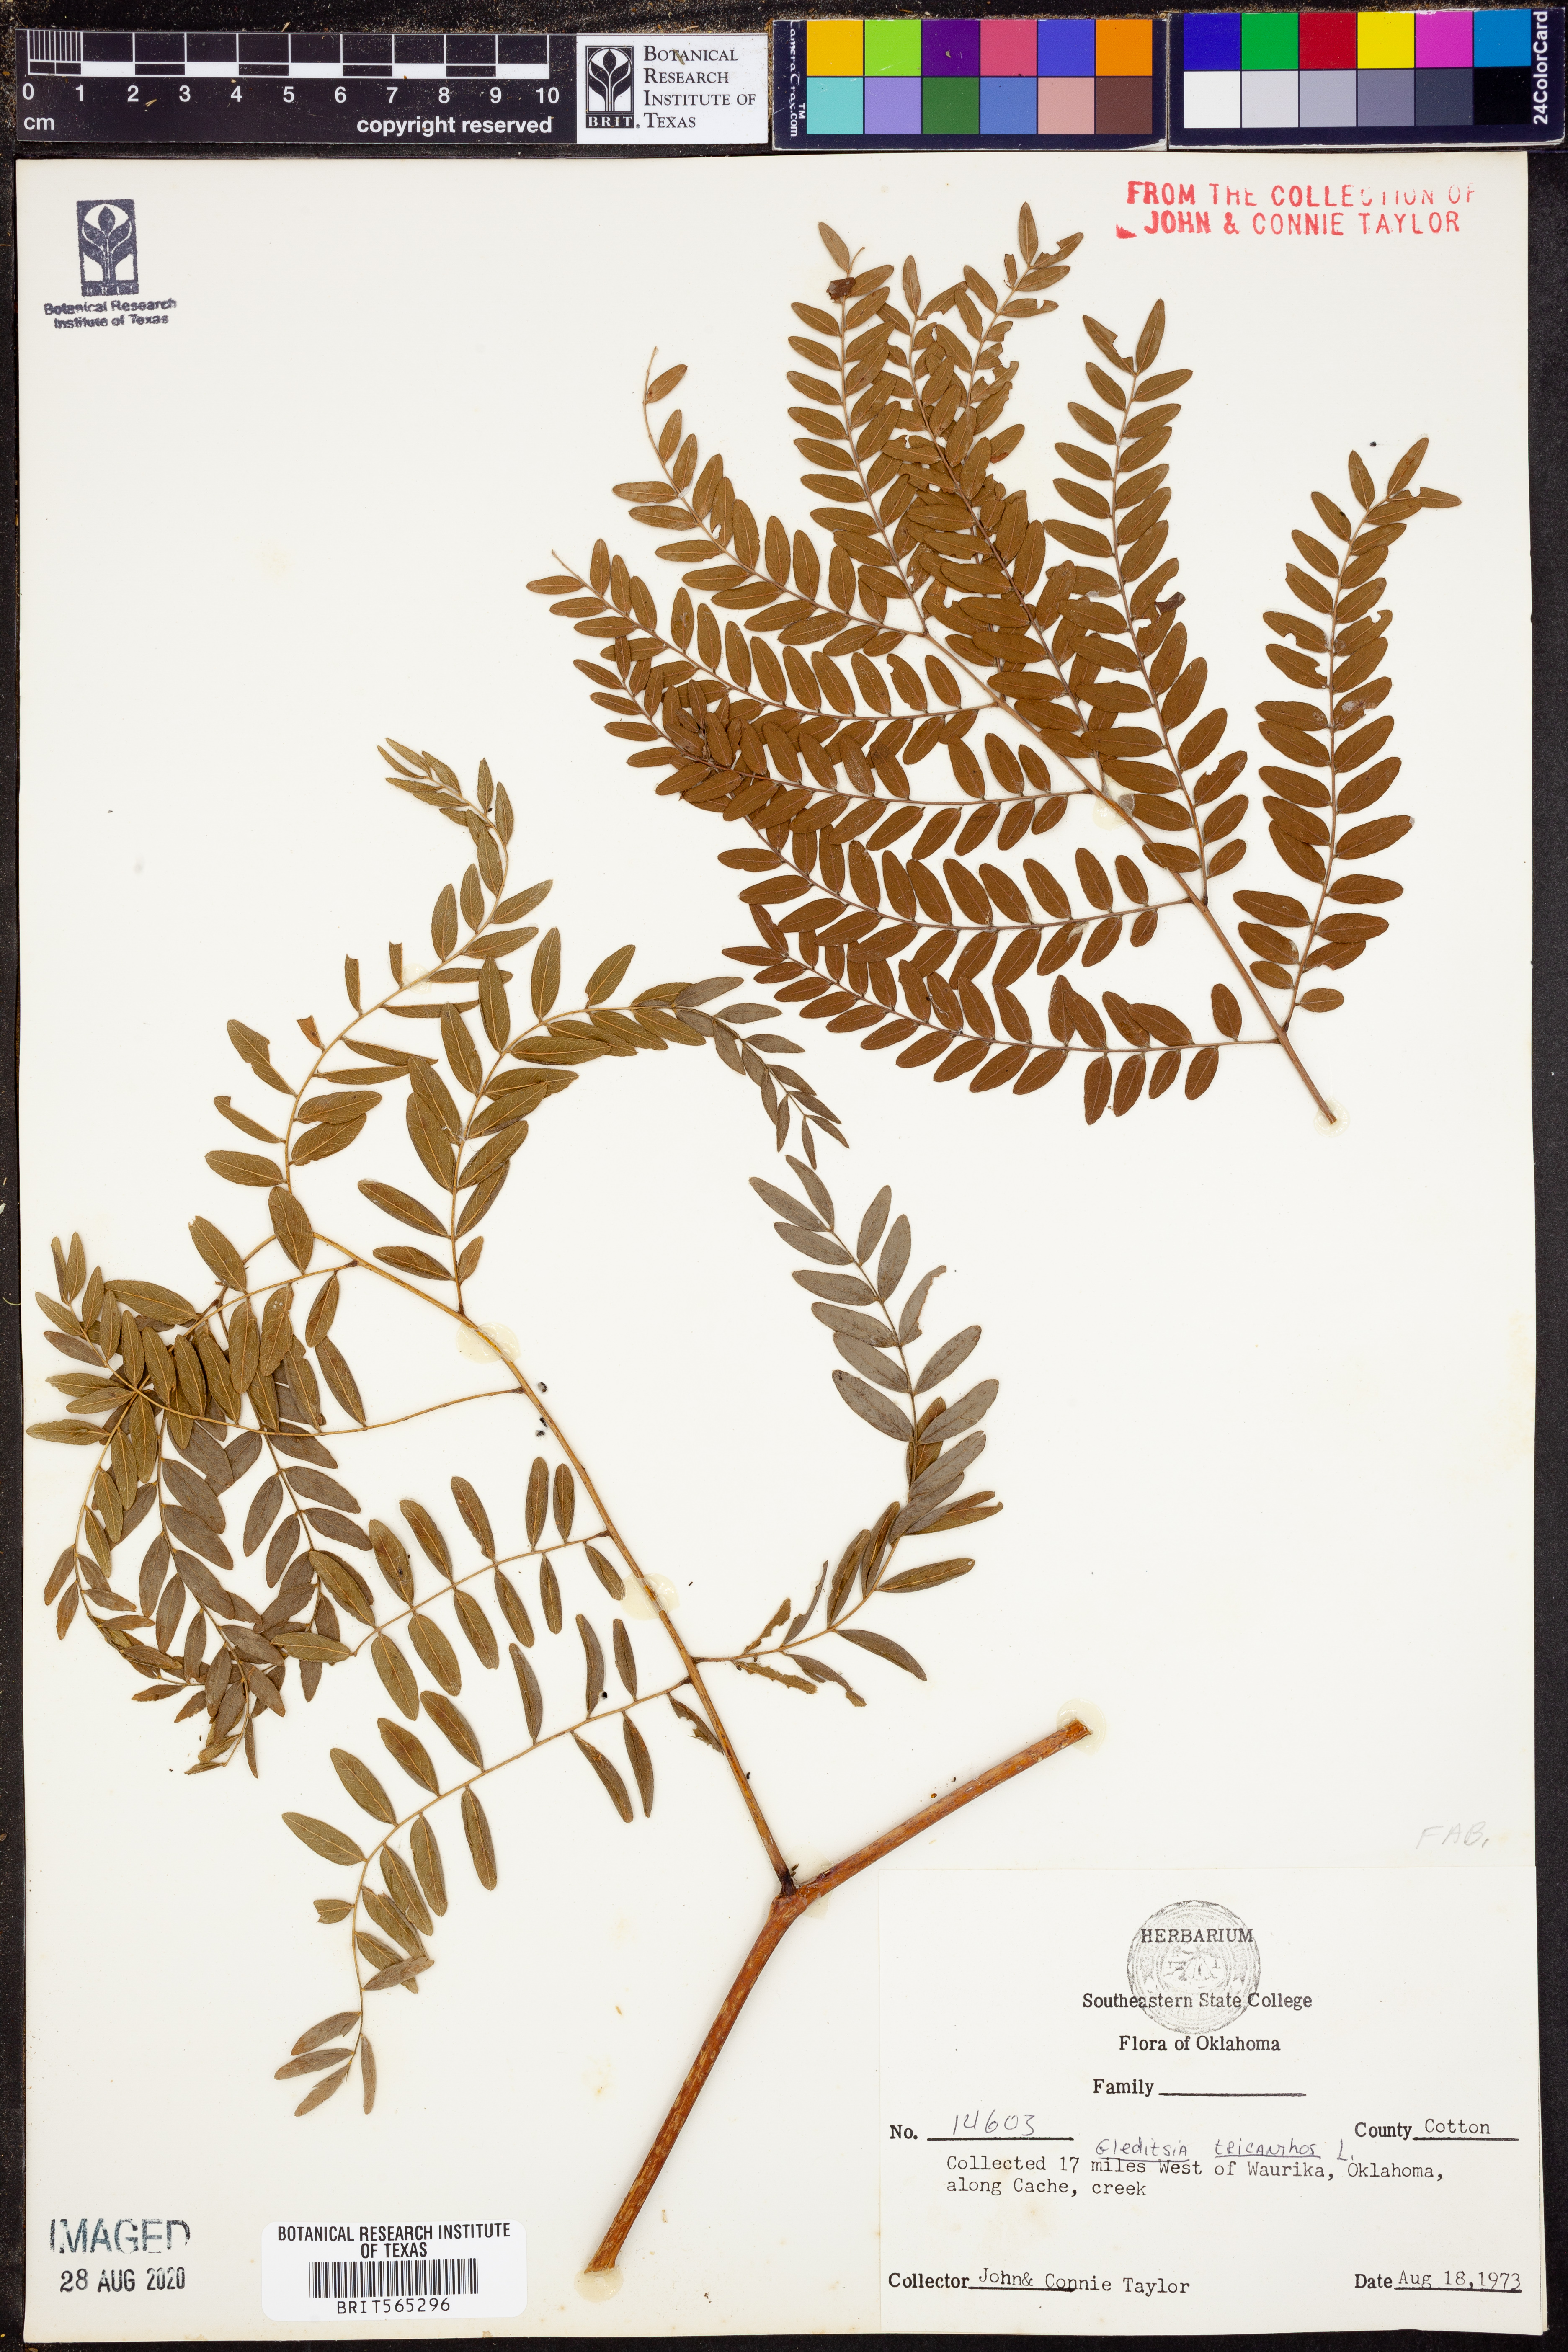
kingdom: Plantae
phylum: Tracheophyta
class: Magnoliopsida
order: Fabales
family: Fabaceae
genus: Gleditsia
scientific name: Gleditsia triacanthos
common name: Common honeylocust
